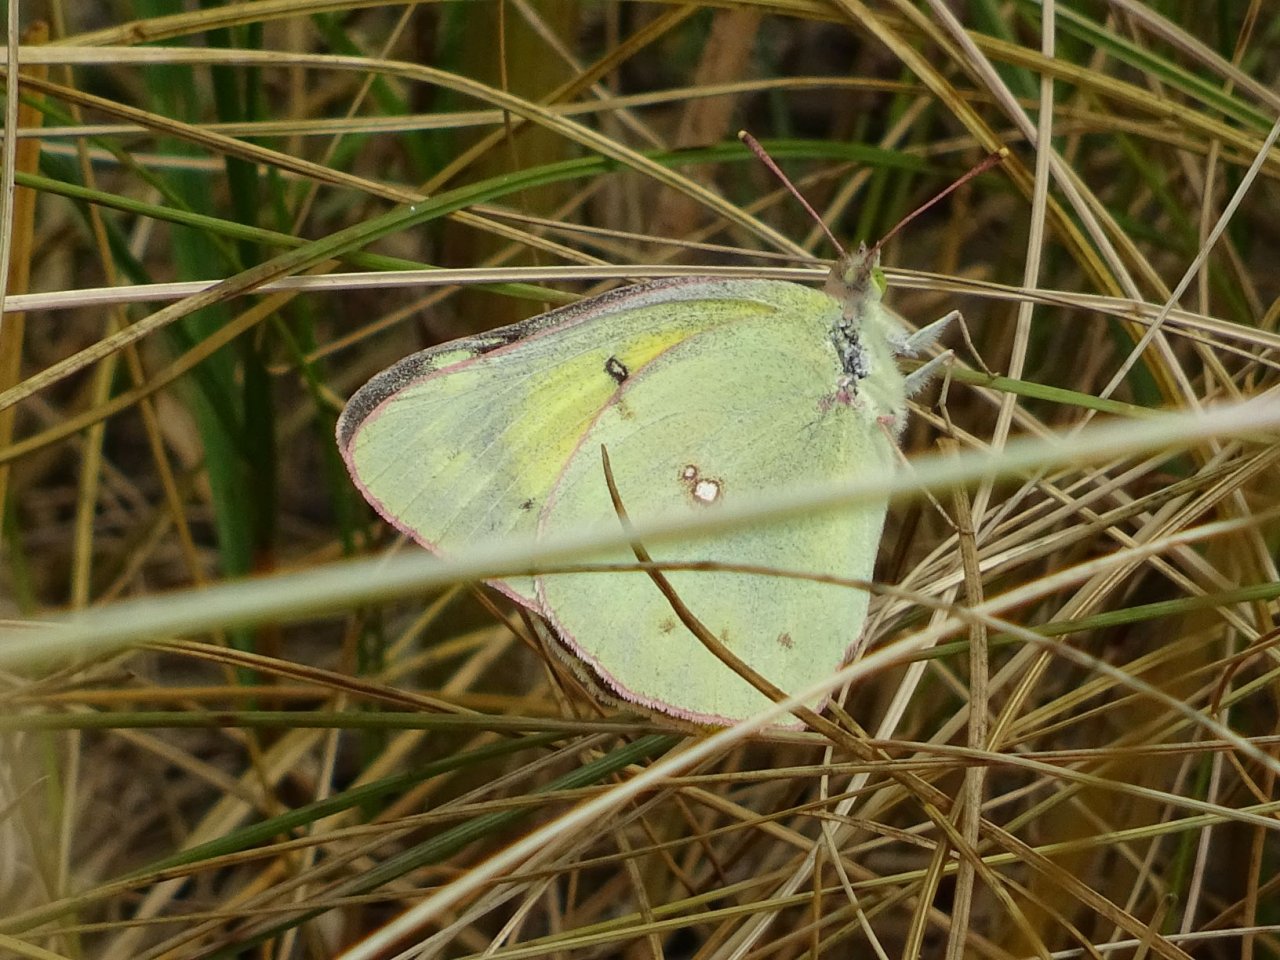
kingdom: Animalia
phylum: Arthropoda
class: Insecta
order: Lepidoptera
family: Pieridae
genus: Colias
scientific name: Colias eurytheme
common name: Orange Sulphur
